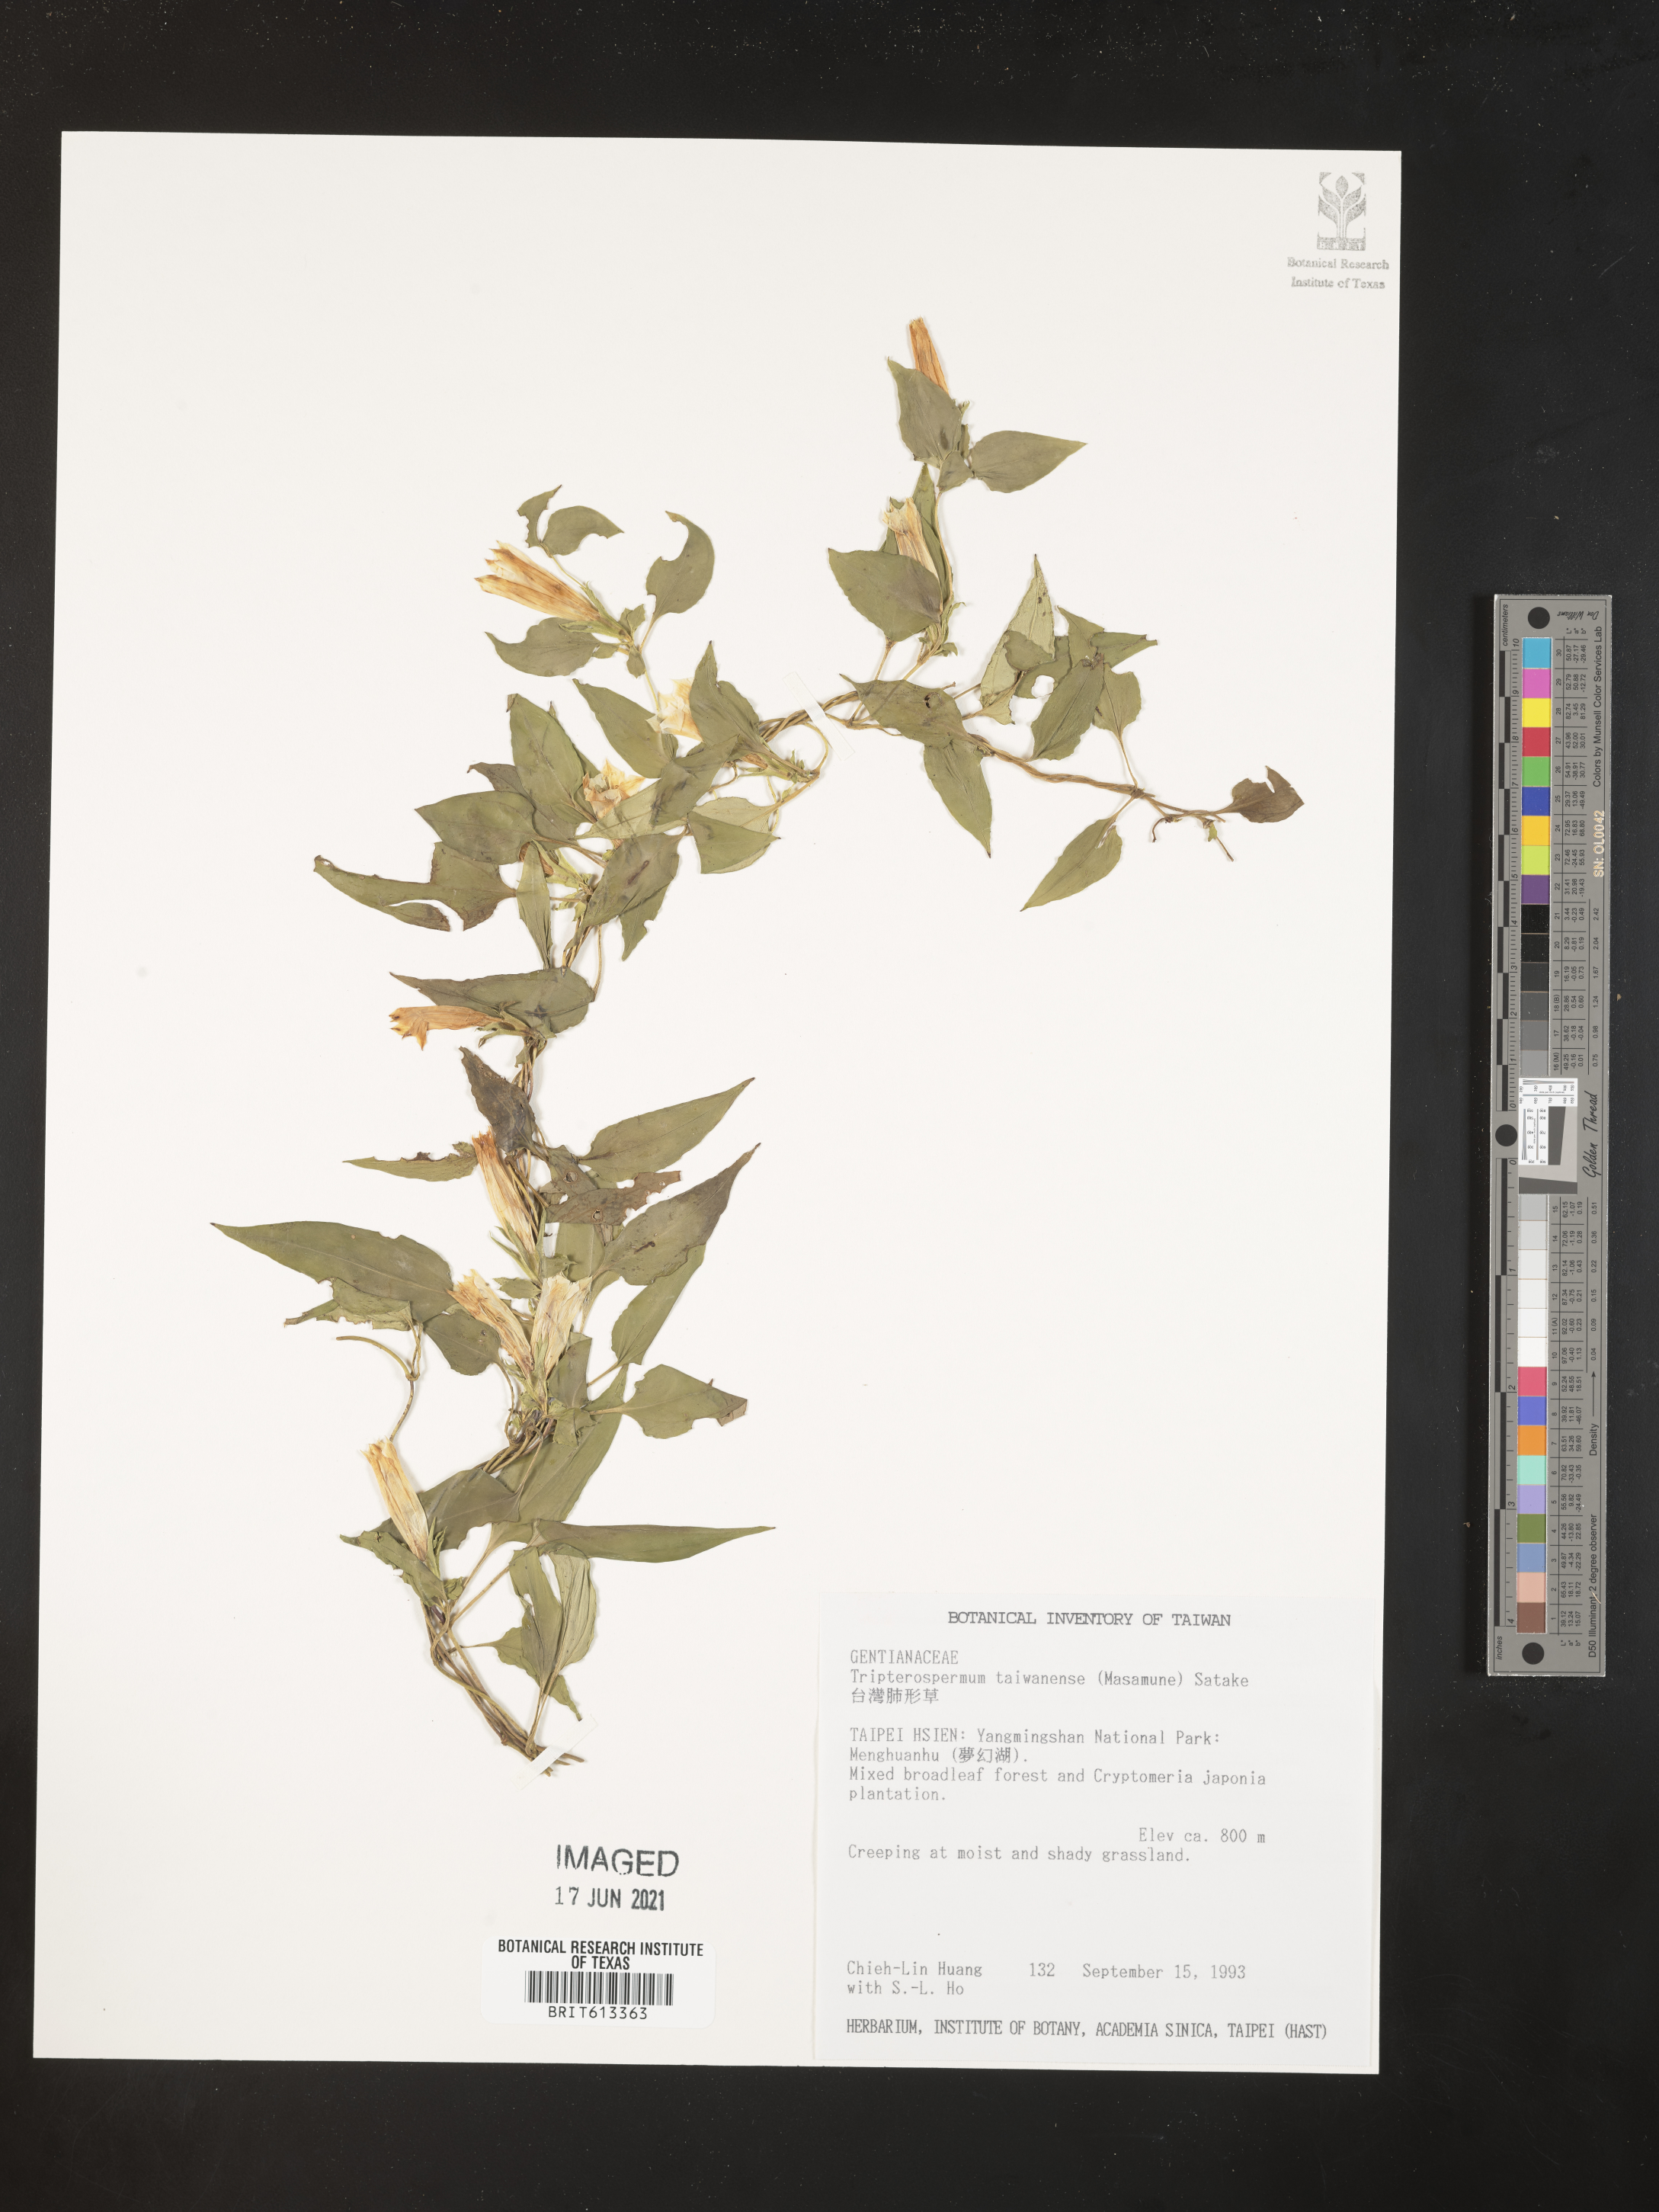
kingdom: Plantae
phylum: Tracheophyta
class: Magnoliopsida
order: Gentianales
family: Gentianaceae
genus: Tripterospermum
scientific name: Tripterospermum taiwanense
